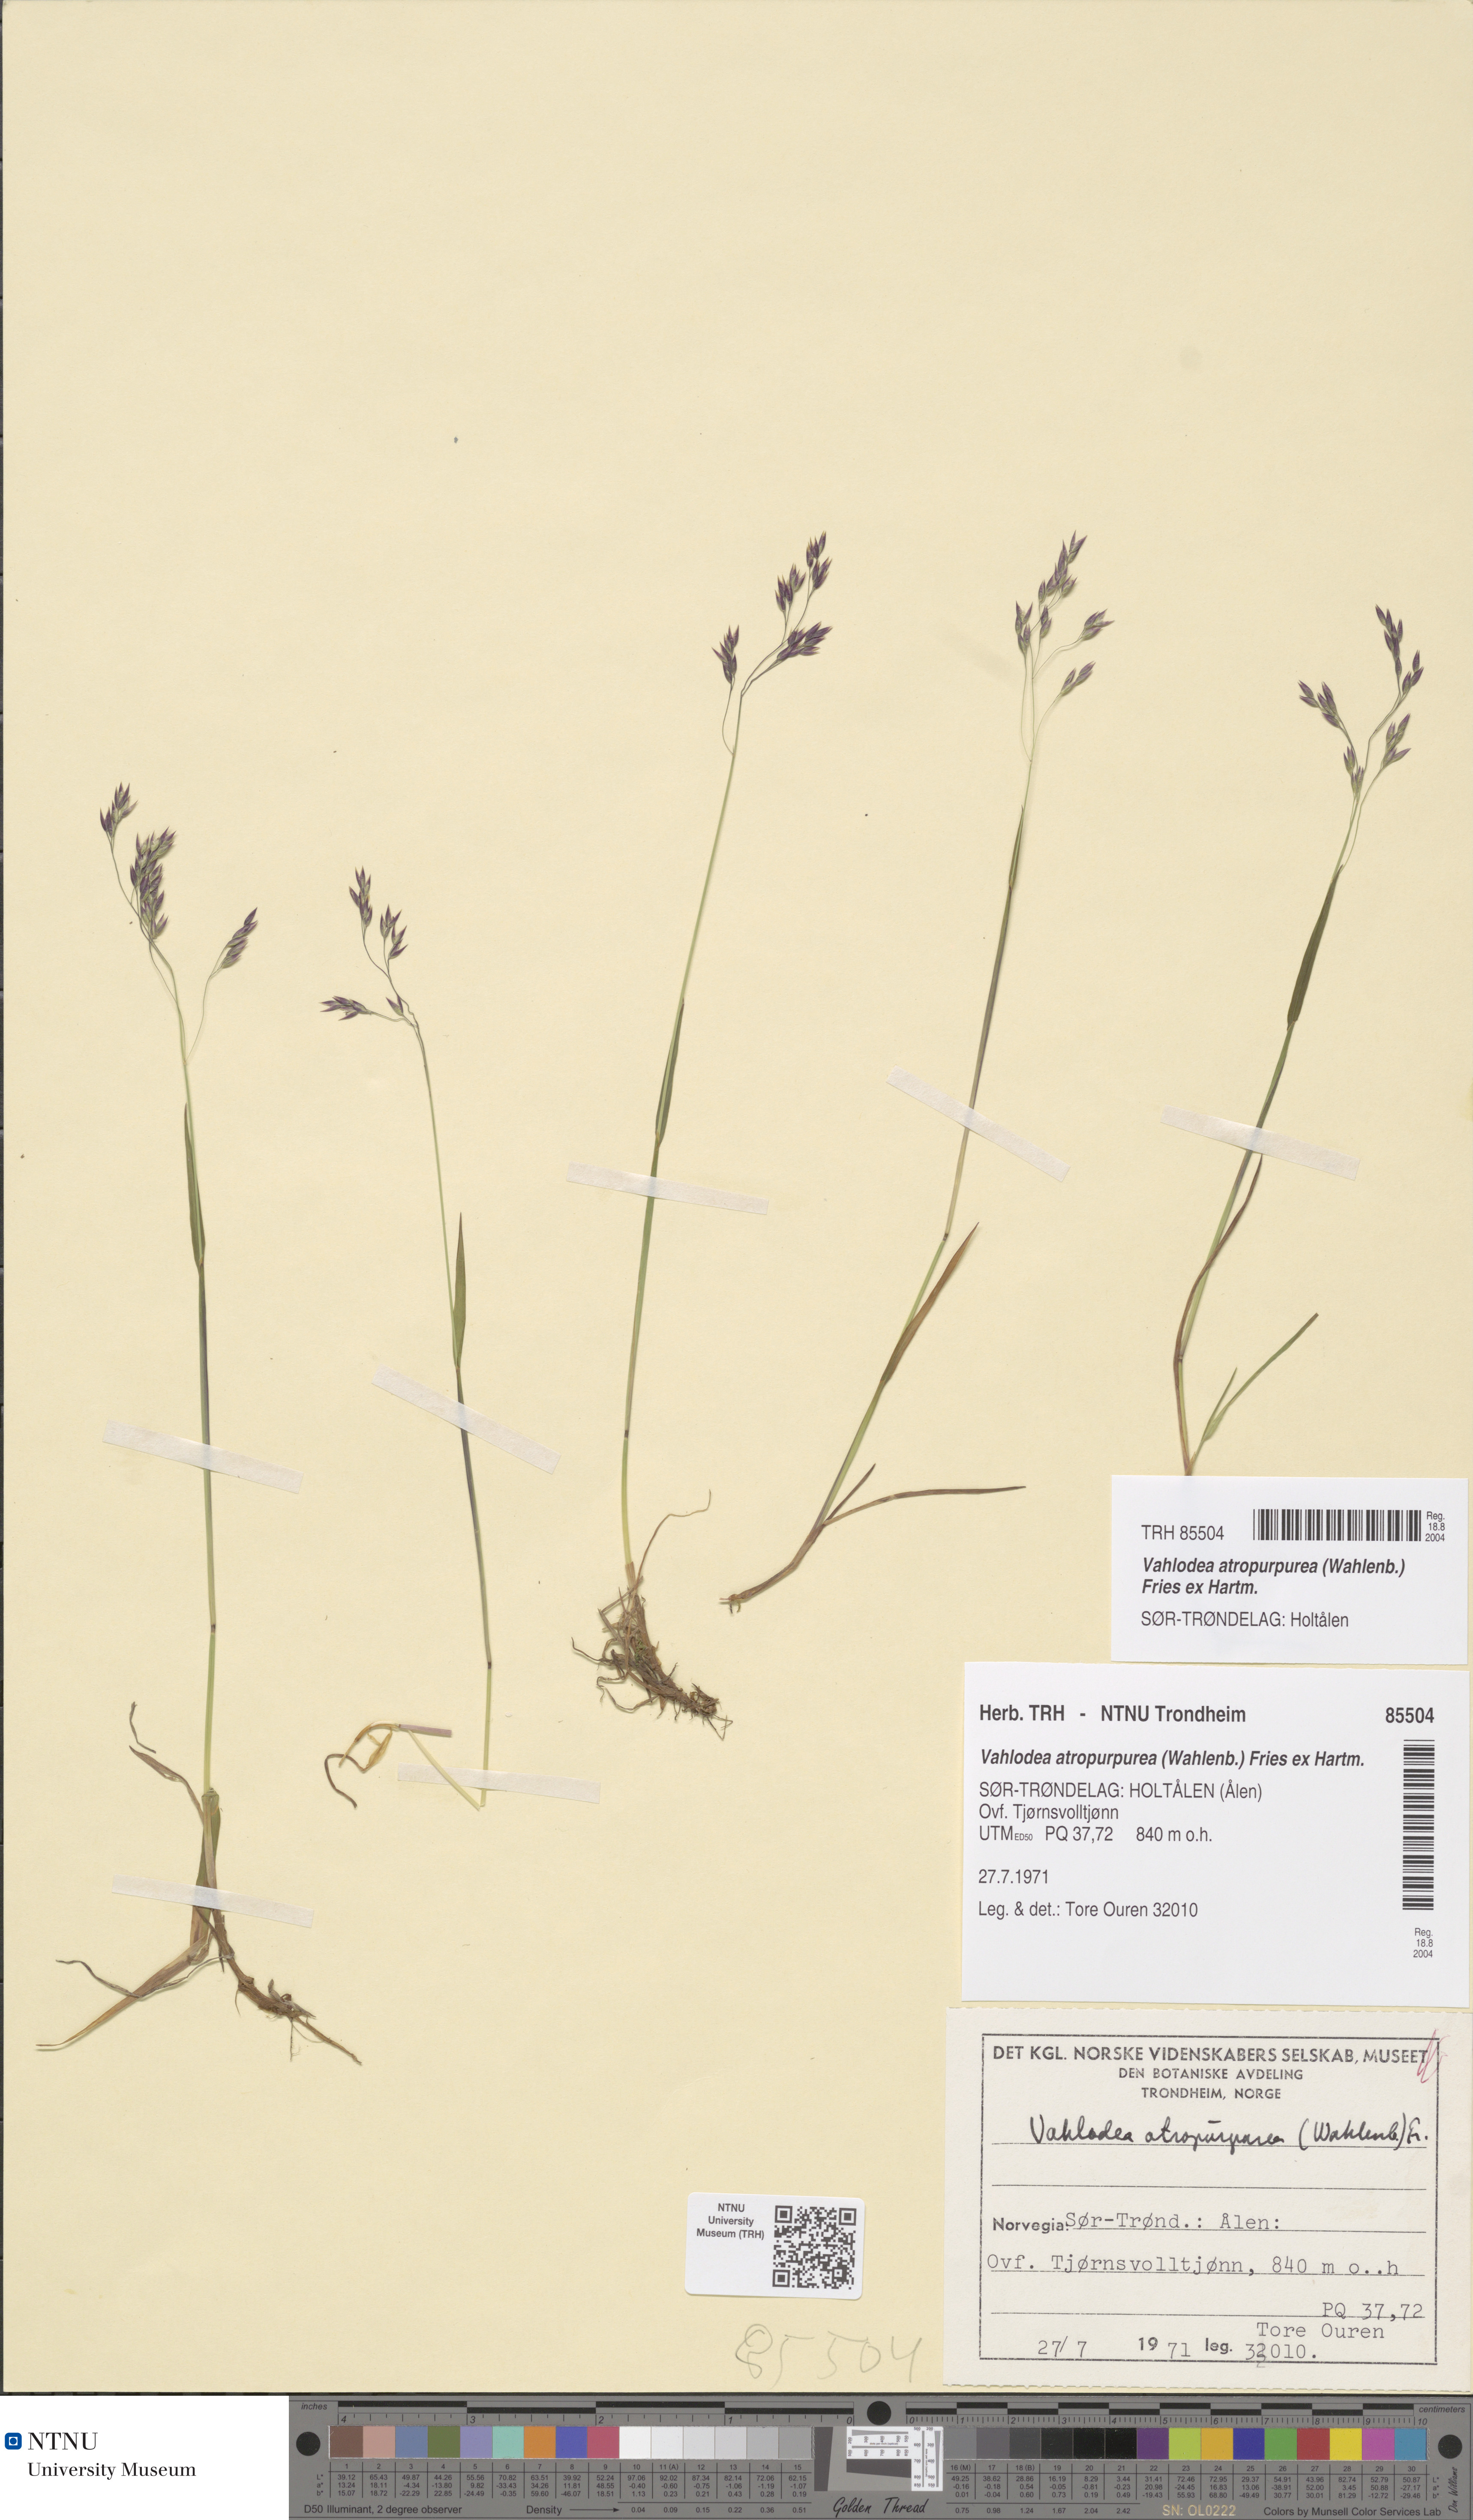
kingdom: Plantae
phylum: Tracheophyta
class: Liliopsida
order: Poales
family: Poaceae
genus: Vahlodea
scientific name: Vahlodea atropurpurea
